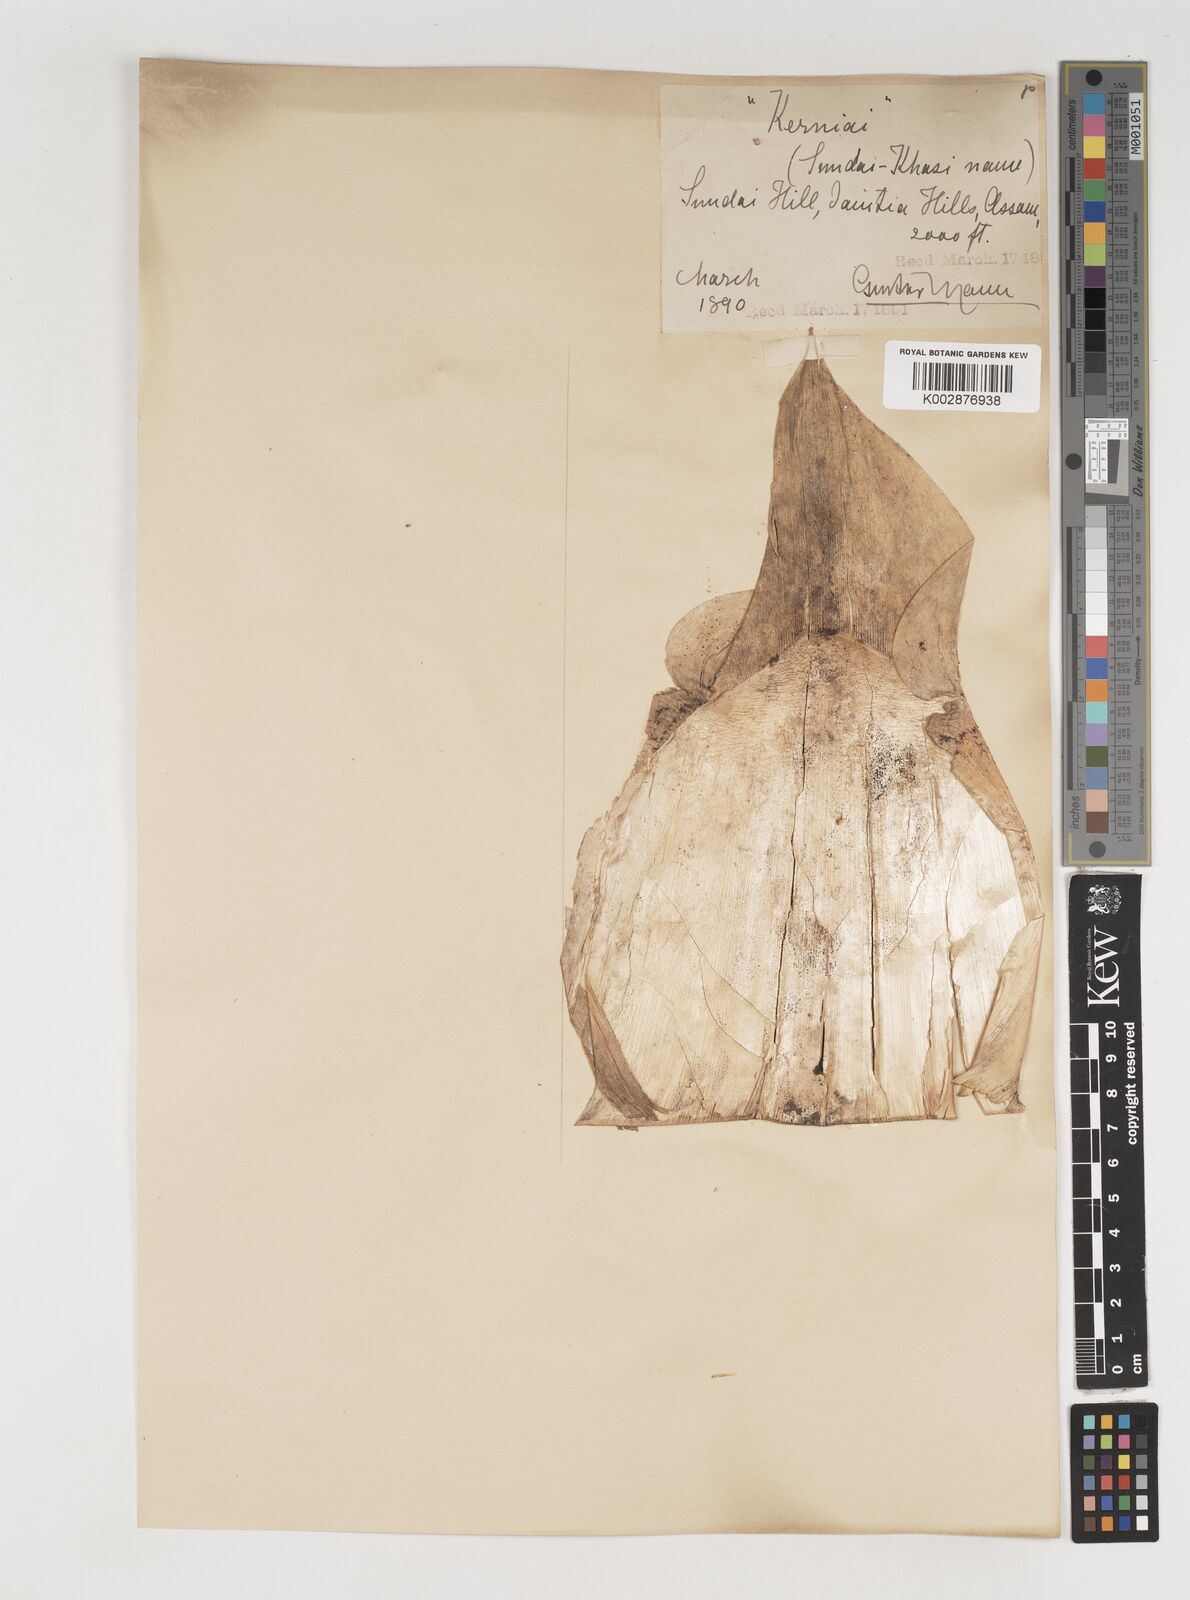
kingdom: Plantae
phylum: Tracheophyta
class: Liliopsida
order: Poales
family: Poaceae
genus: Bambusa
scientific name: Bambusa tulda
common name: Bengal bamboo
